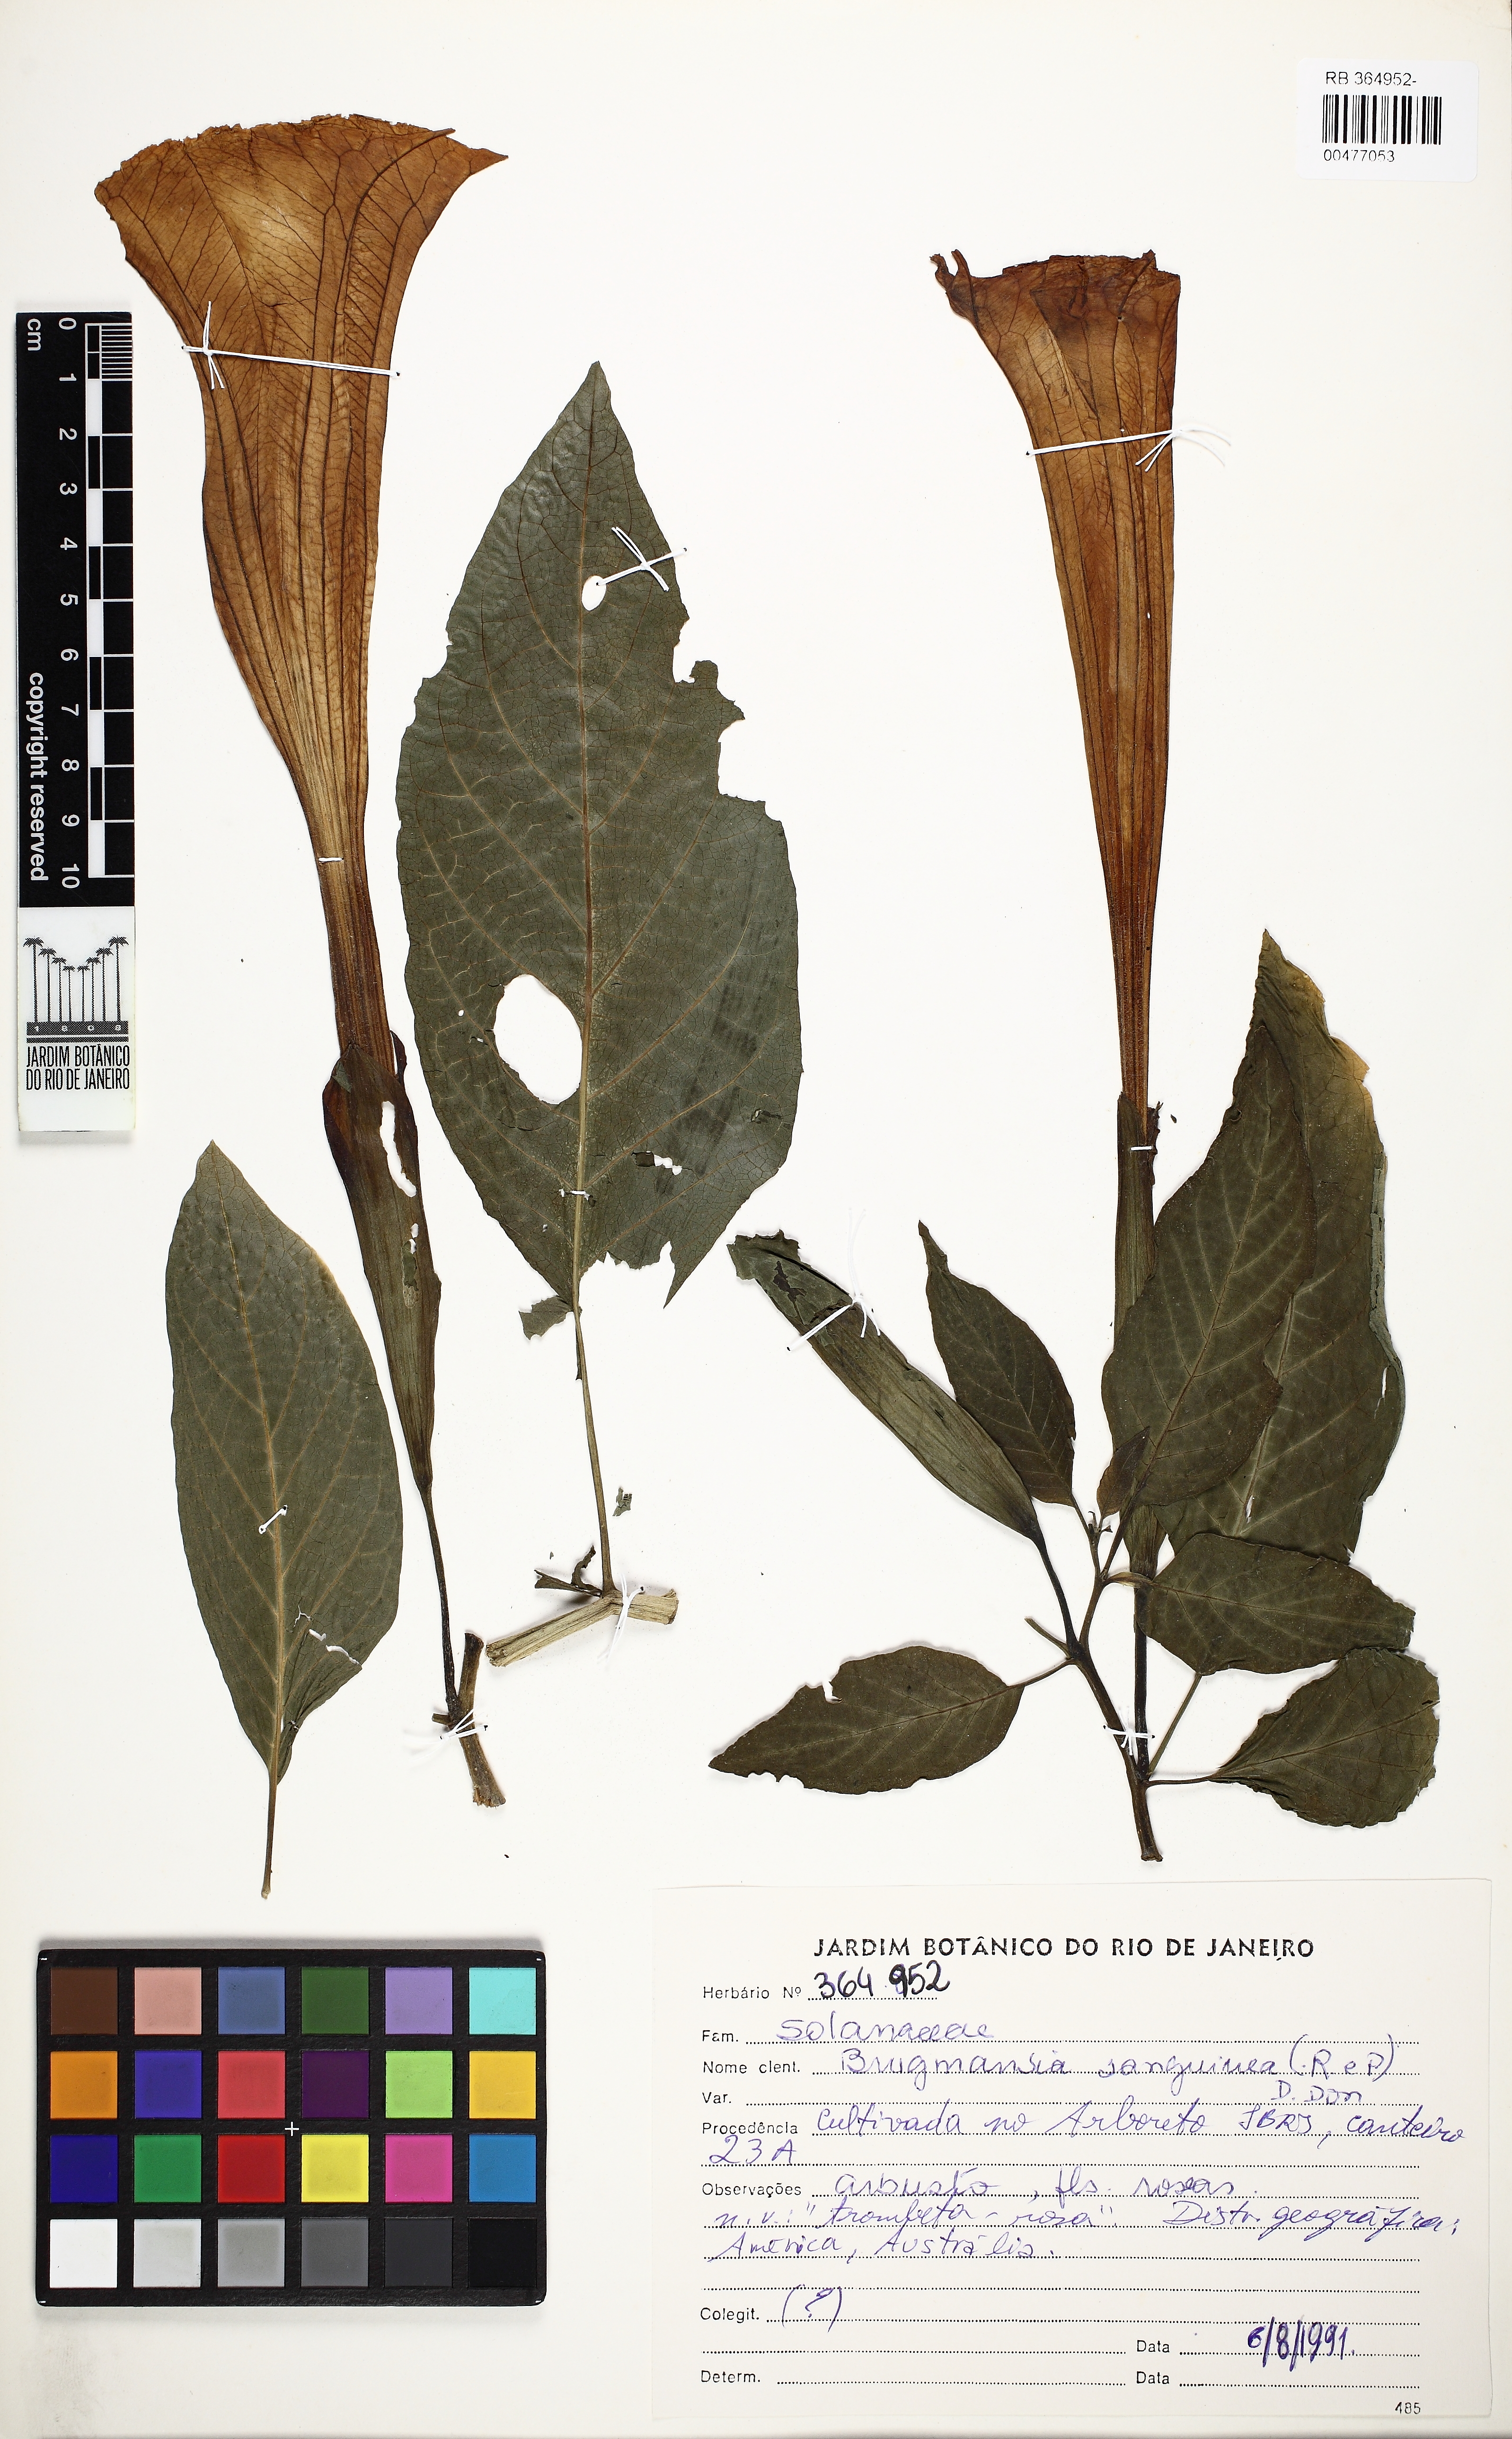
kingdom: Plantae
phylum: Tracheophyta
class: Magnoliopsida
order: Solanales
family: Solanaceae
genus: Brugmansia
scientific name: Brugmansia sanguinea
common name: Red floripontio
